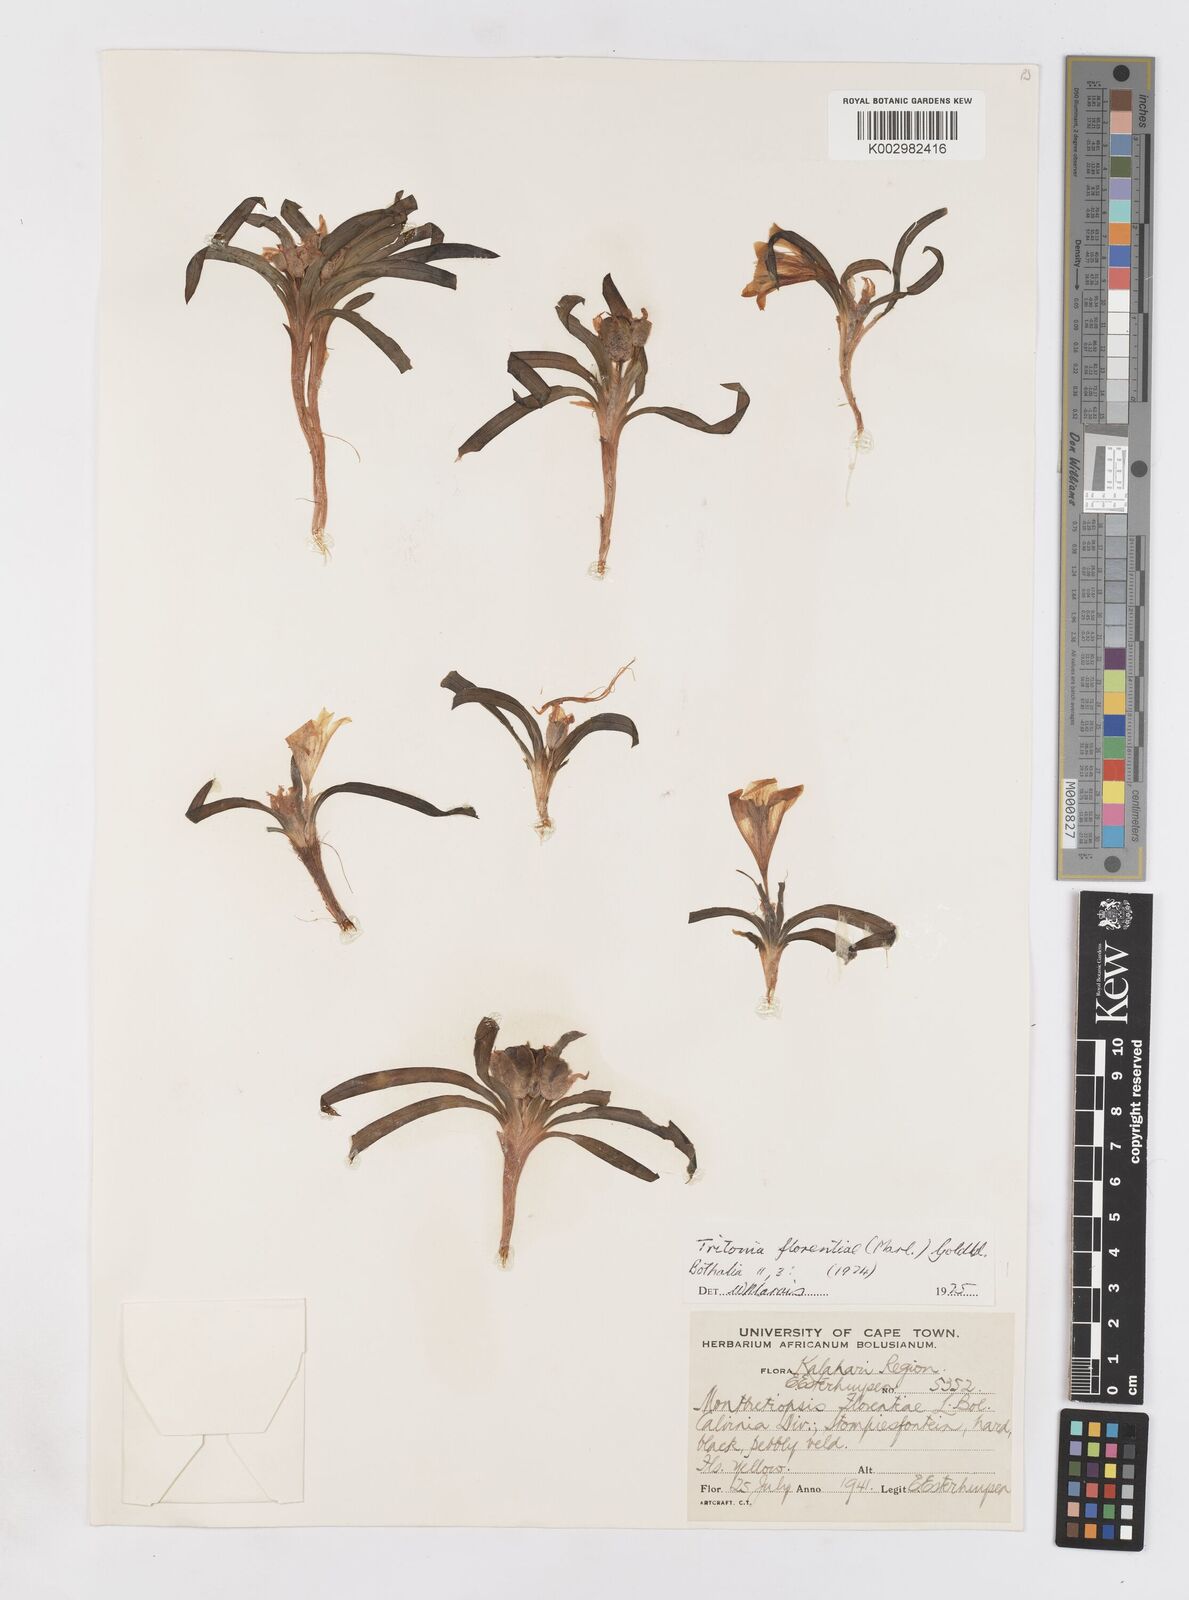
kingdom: Plantae
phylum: Tracheophyta
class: Liliopsida
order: Asparagales
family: Iridaceae
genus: Tritonia
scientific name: Tritonia florentiae
